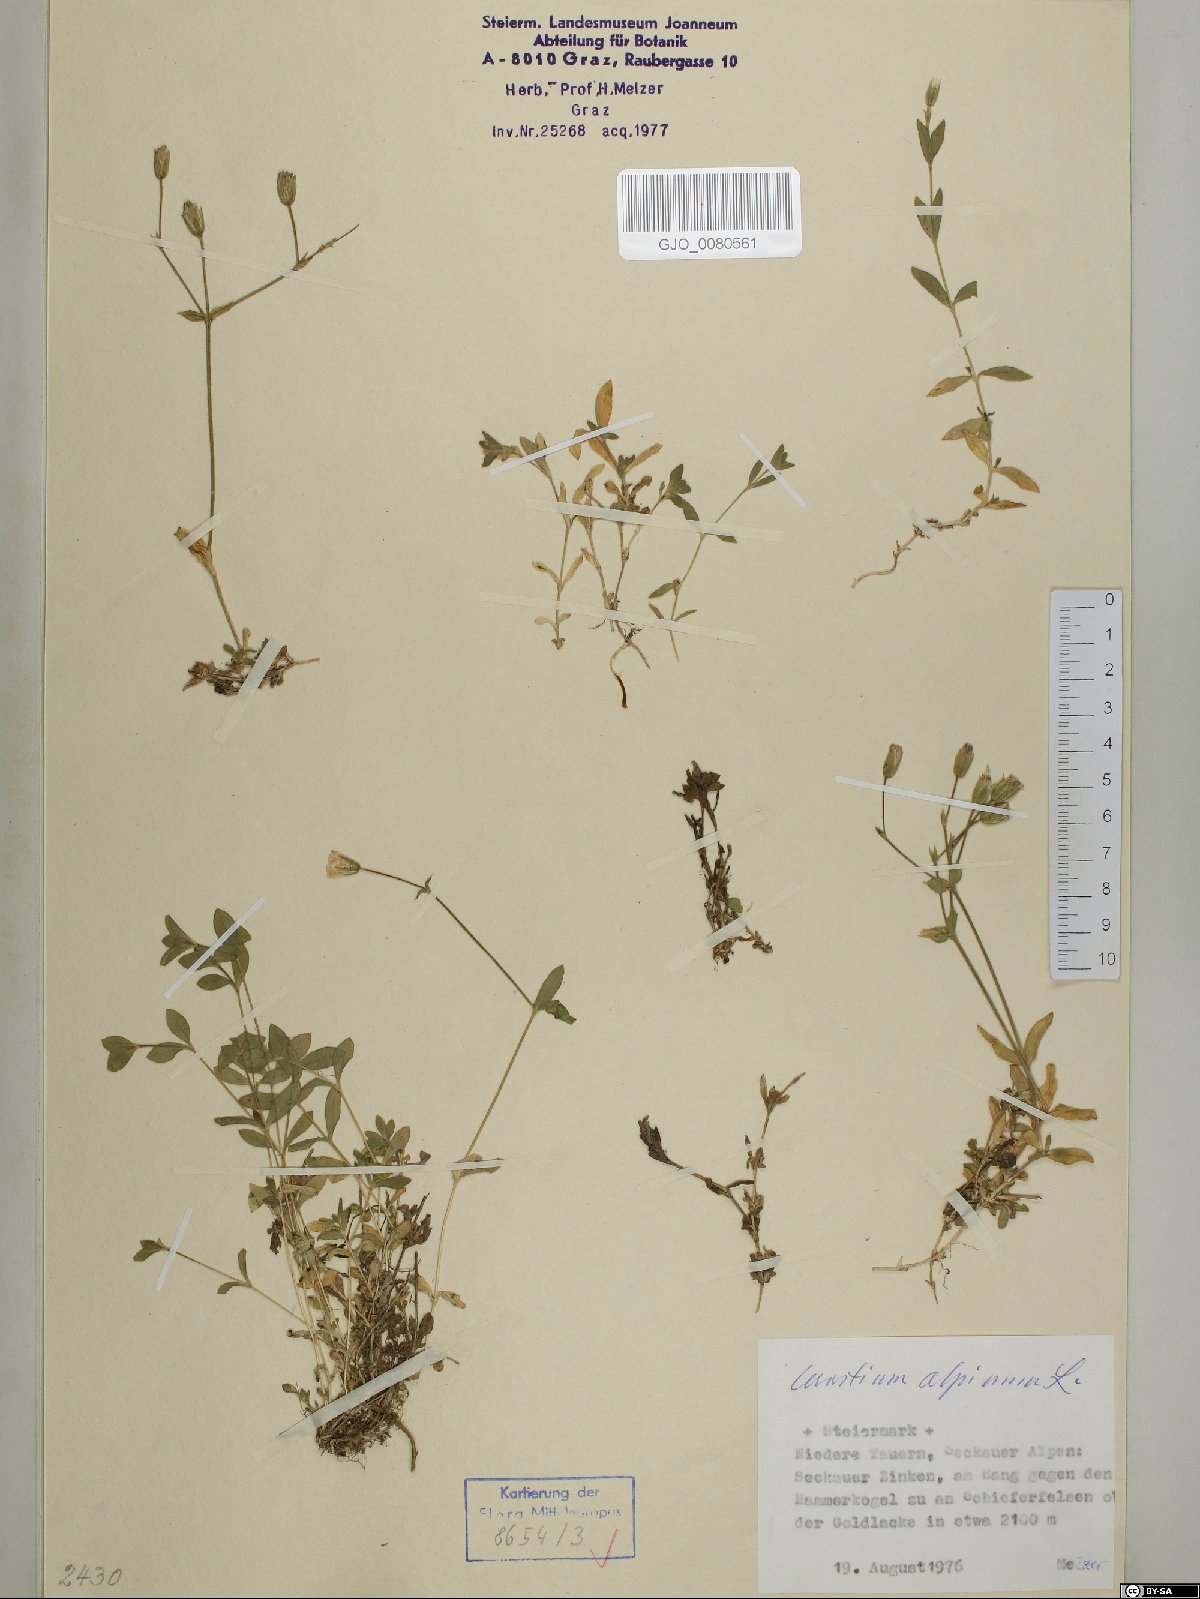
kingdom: Plantae
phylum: Tracheophyta
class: Magnoliopsida
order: Caryophyllales
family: Caryophyllaceae
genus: Cerastium
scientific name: Cerastium alpinum
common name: Alpine mouse-ear
